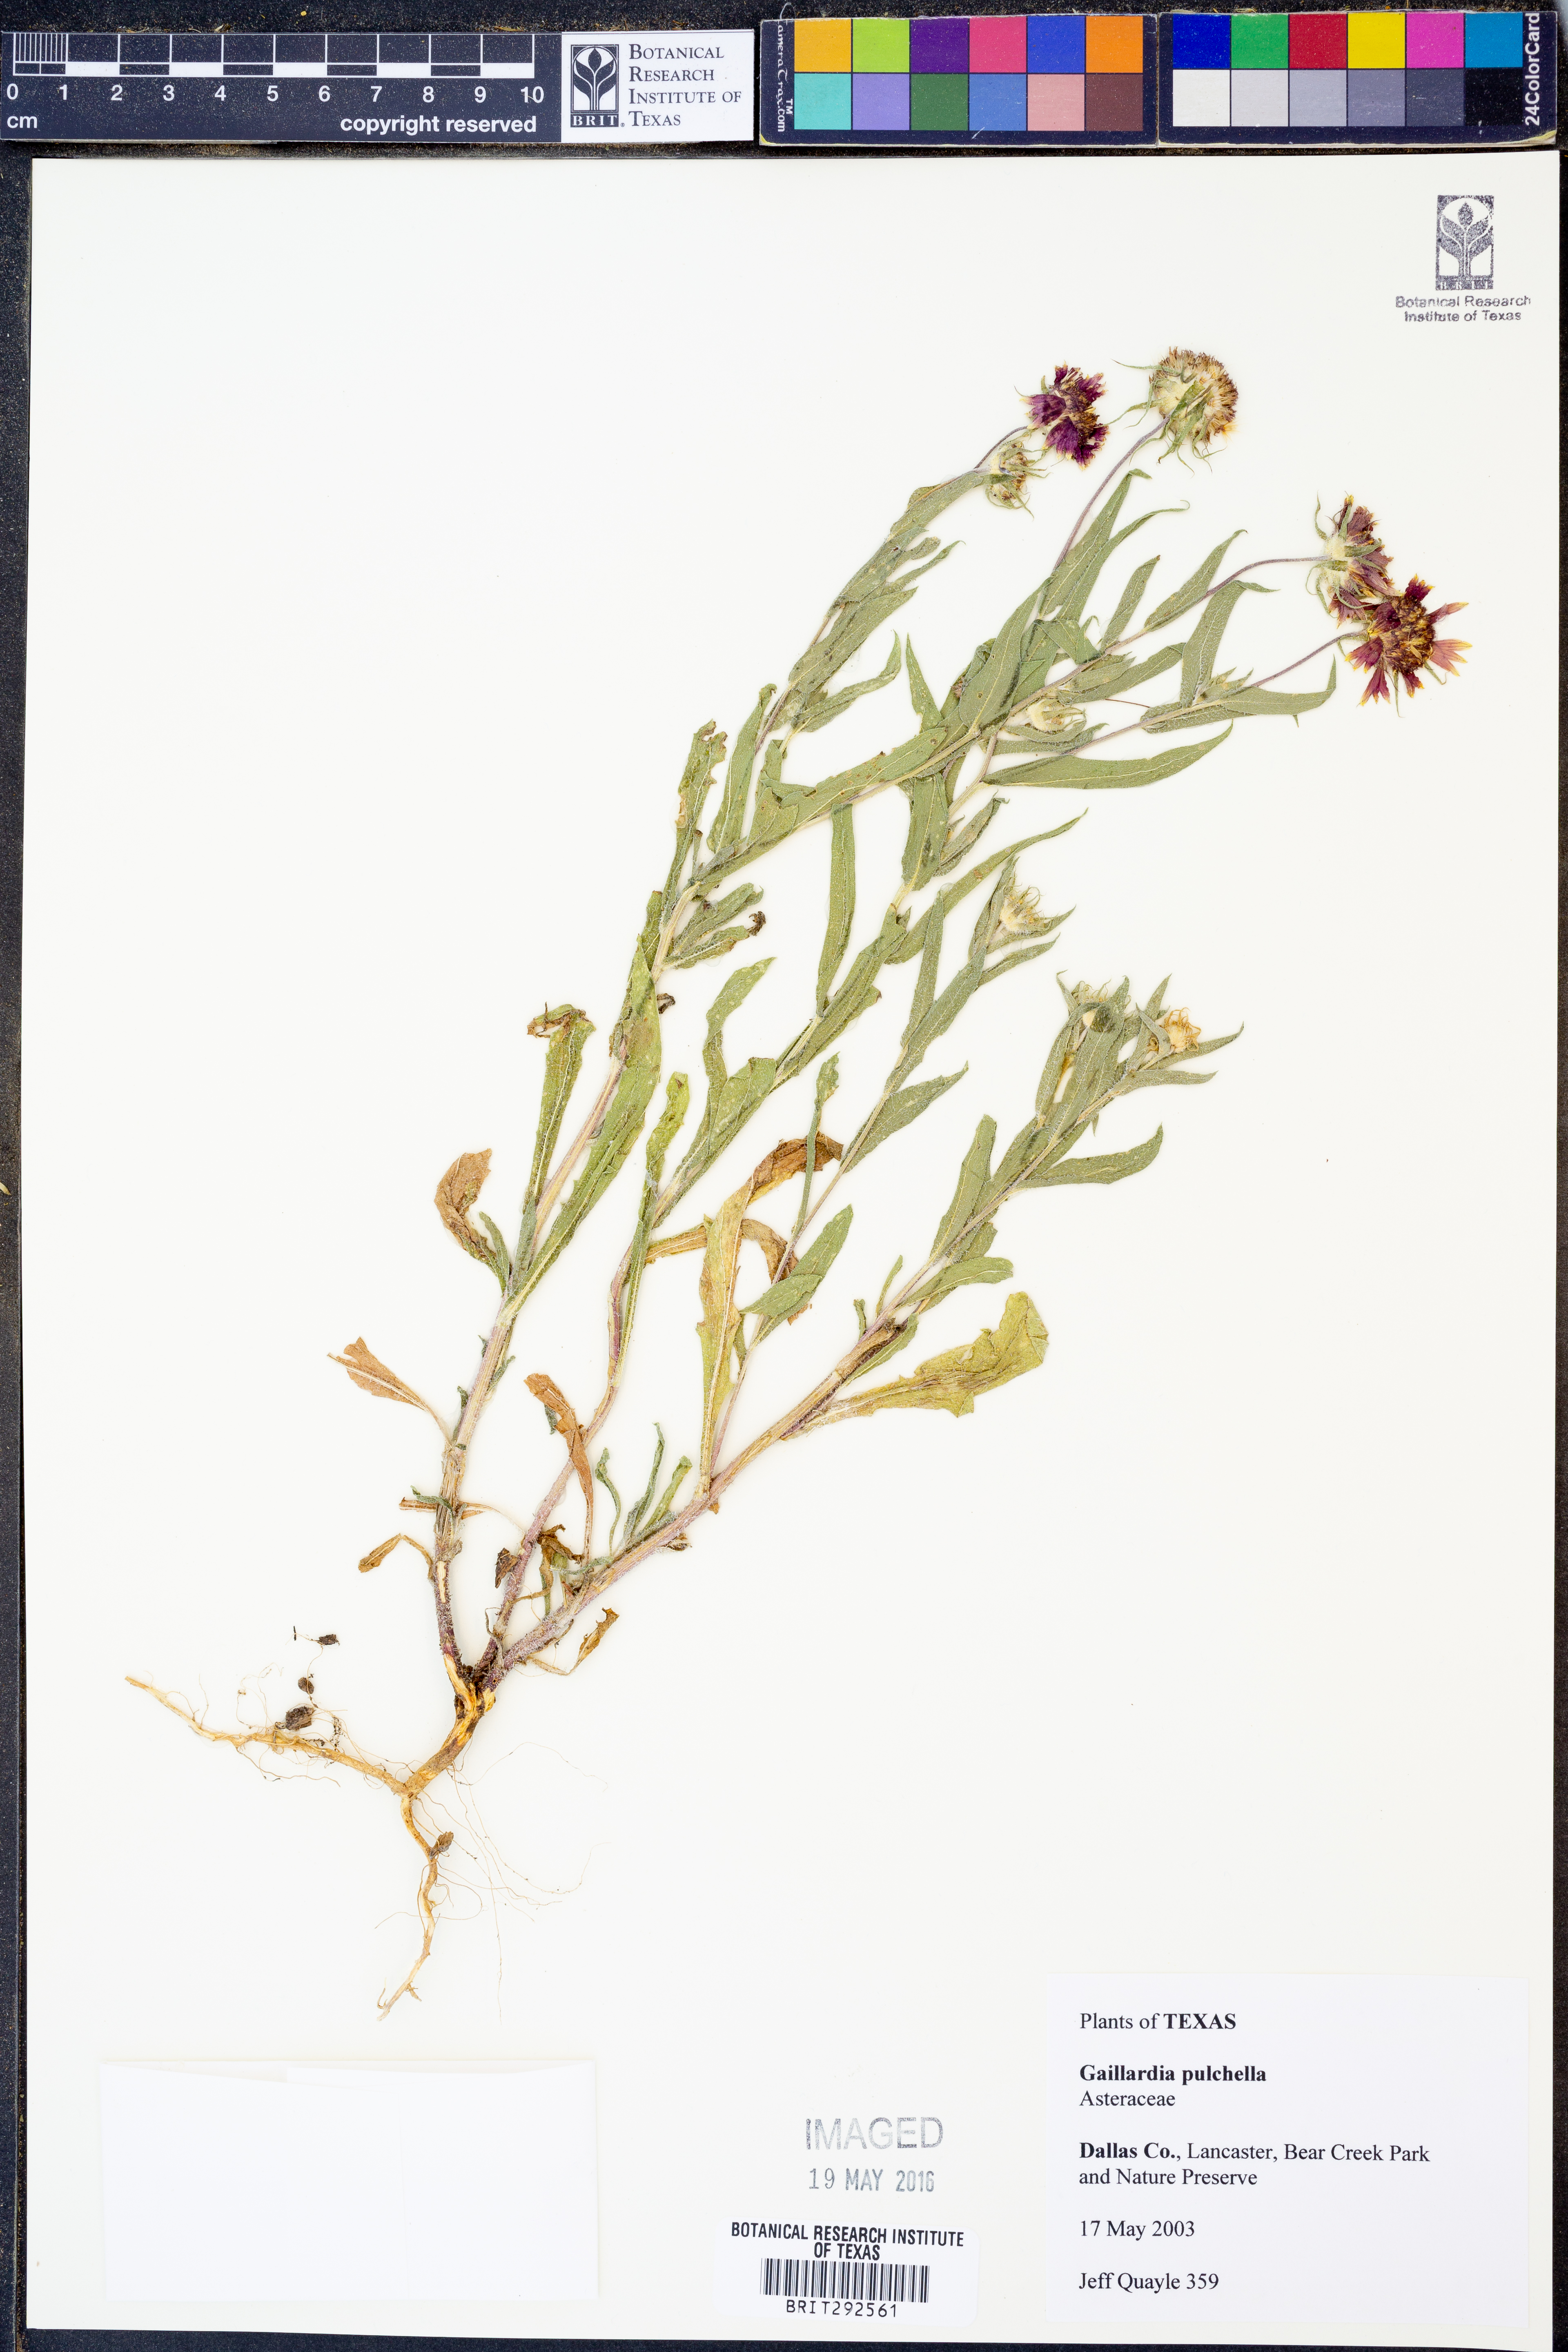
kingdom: Plantae
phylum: Tracheophyta
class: Magnoliopsida
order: Asterales
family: Asteraceae
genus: Gaillardia
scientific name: Gaillardia pulchella
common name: Firewheel
